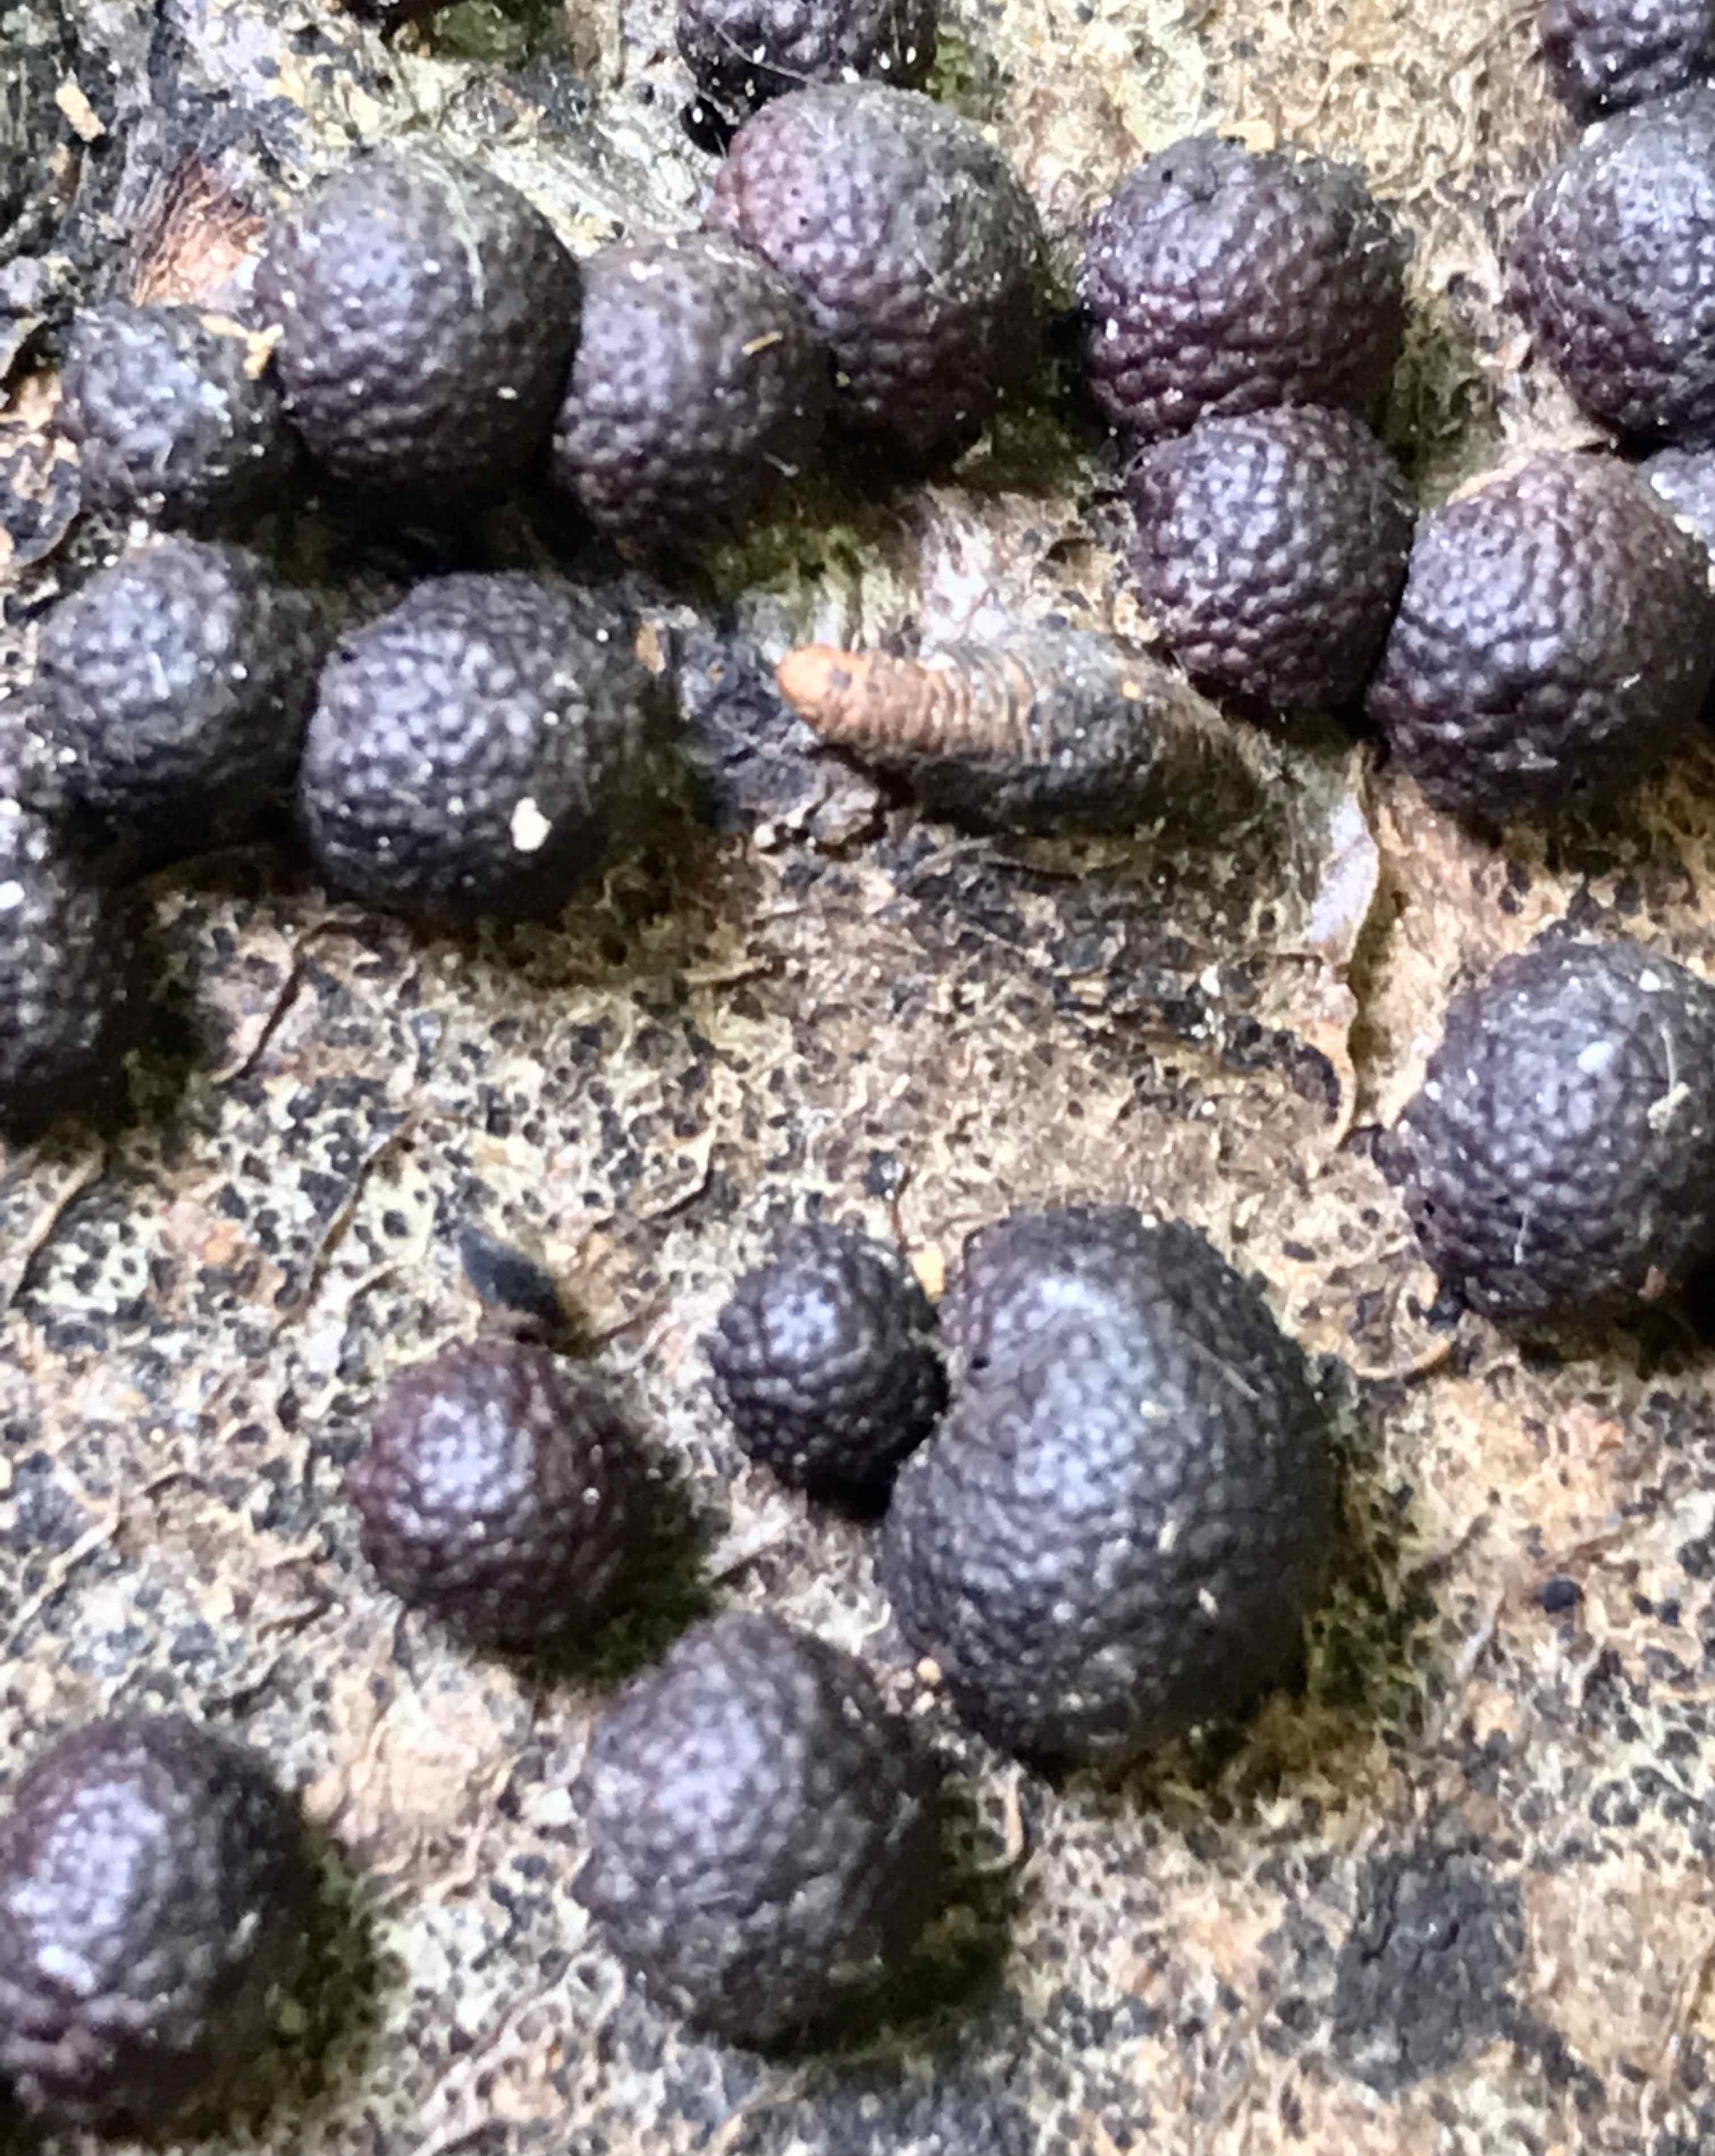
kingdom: Fungi
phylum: Ascomycota
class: Sordariomycetes
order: Xylariales
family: Hypoxylaceae
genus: Hypoxylon
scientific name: Hypoxylon fragiforme
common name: kuljordbær
